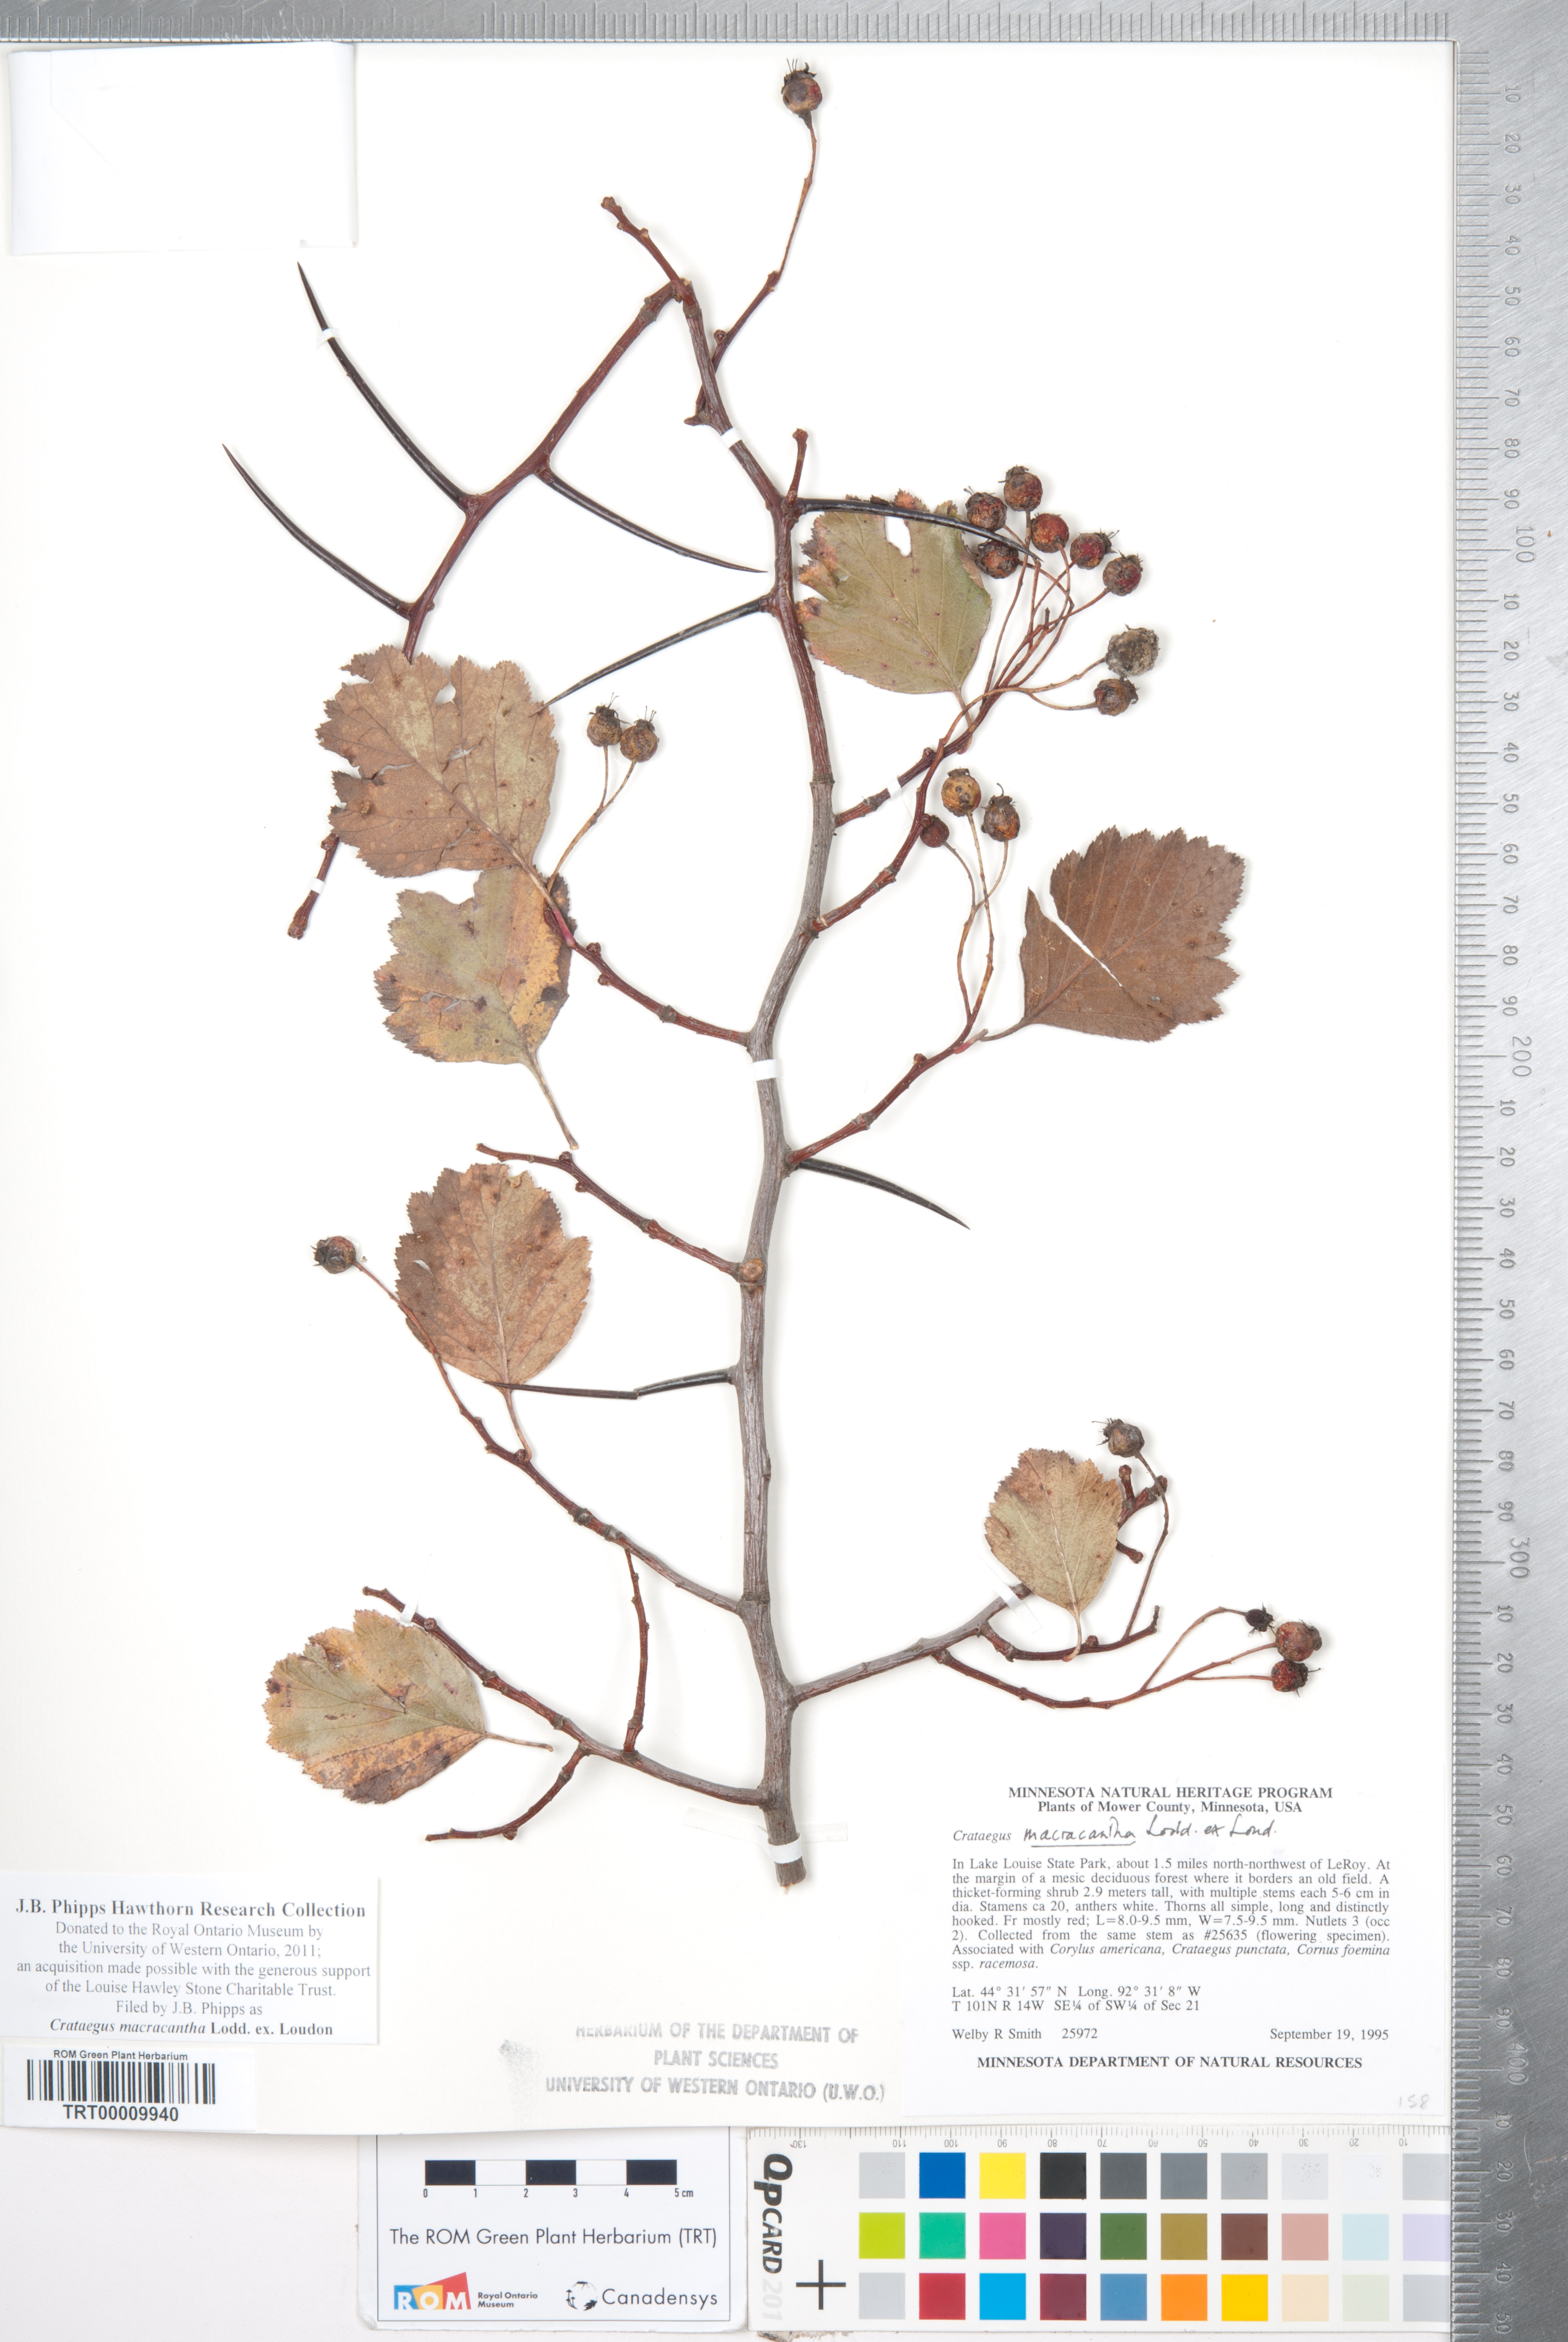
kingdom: Plantae
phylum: Tracheophyta
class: Magnoliopsida
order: Rosales
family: Rosaceae
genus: Crataegus
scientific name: Crataegus macracantha
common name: Large-thorn hawthorn
